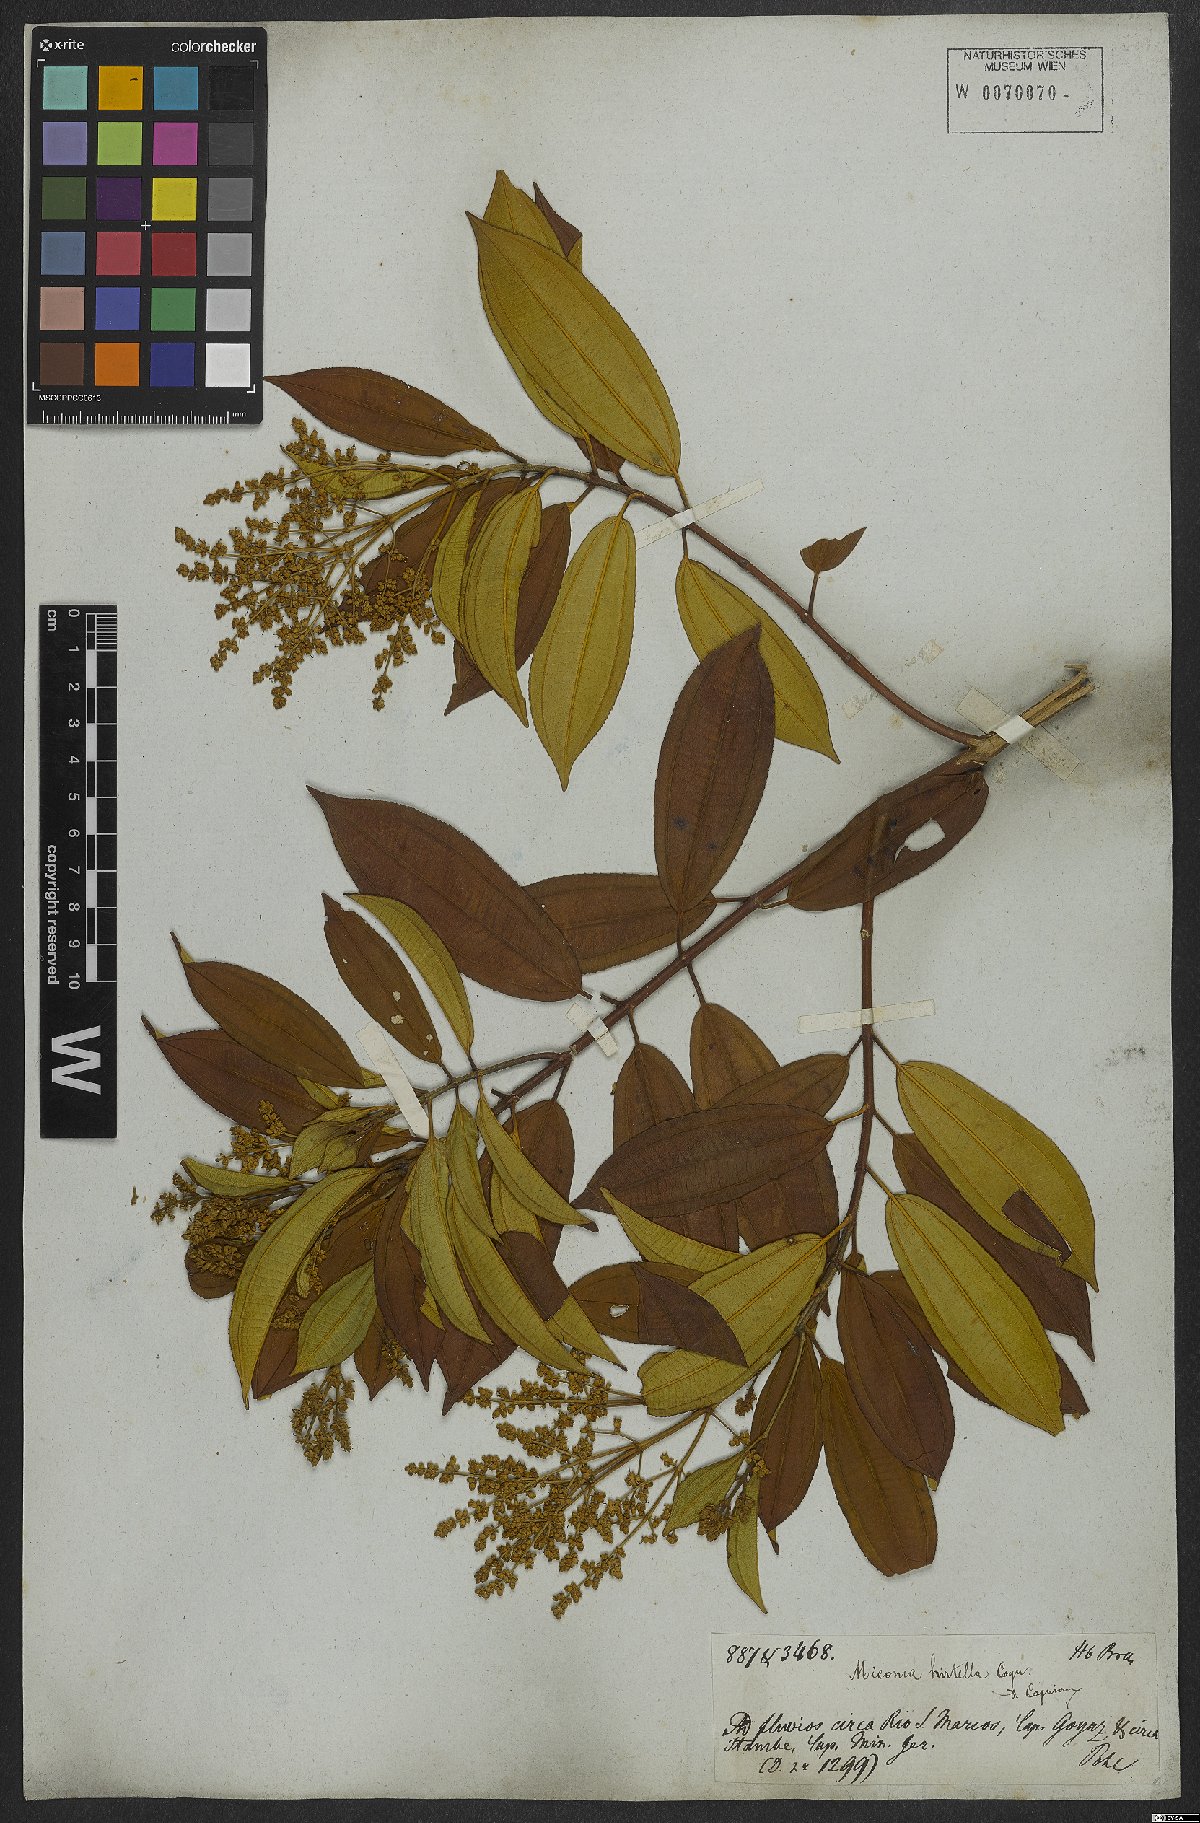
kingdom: Plantae
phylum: Tracheophyta
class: Magnoliopsida
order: Myrtales
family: Melastomataceae
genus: Miconia
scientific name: Miconia hirta
